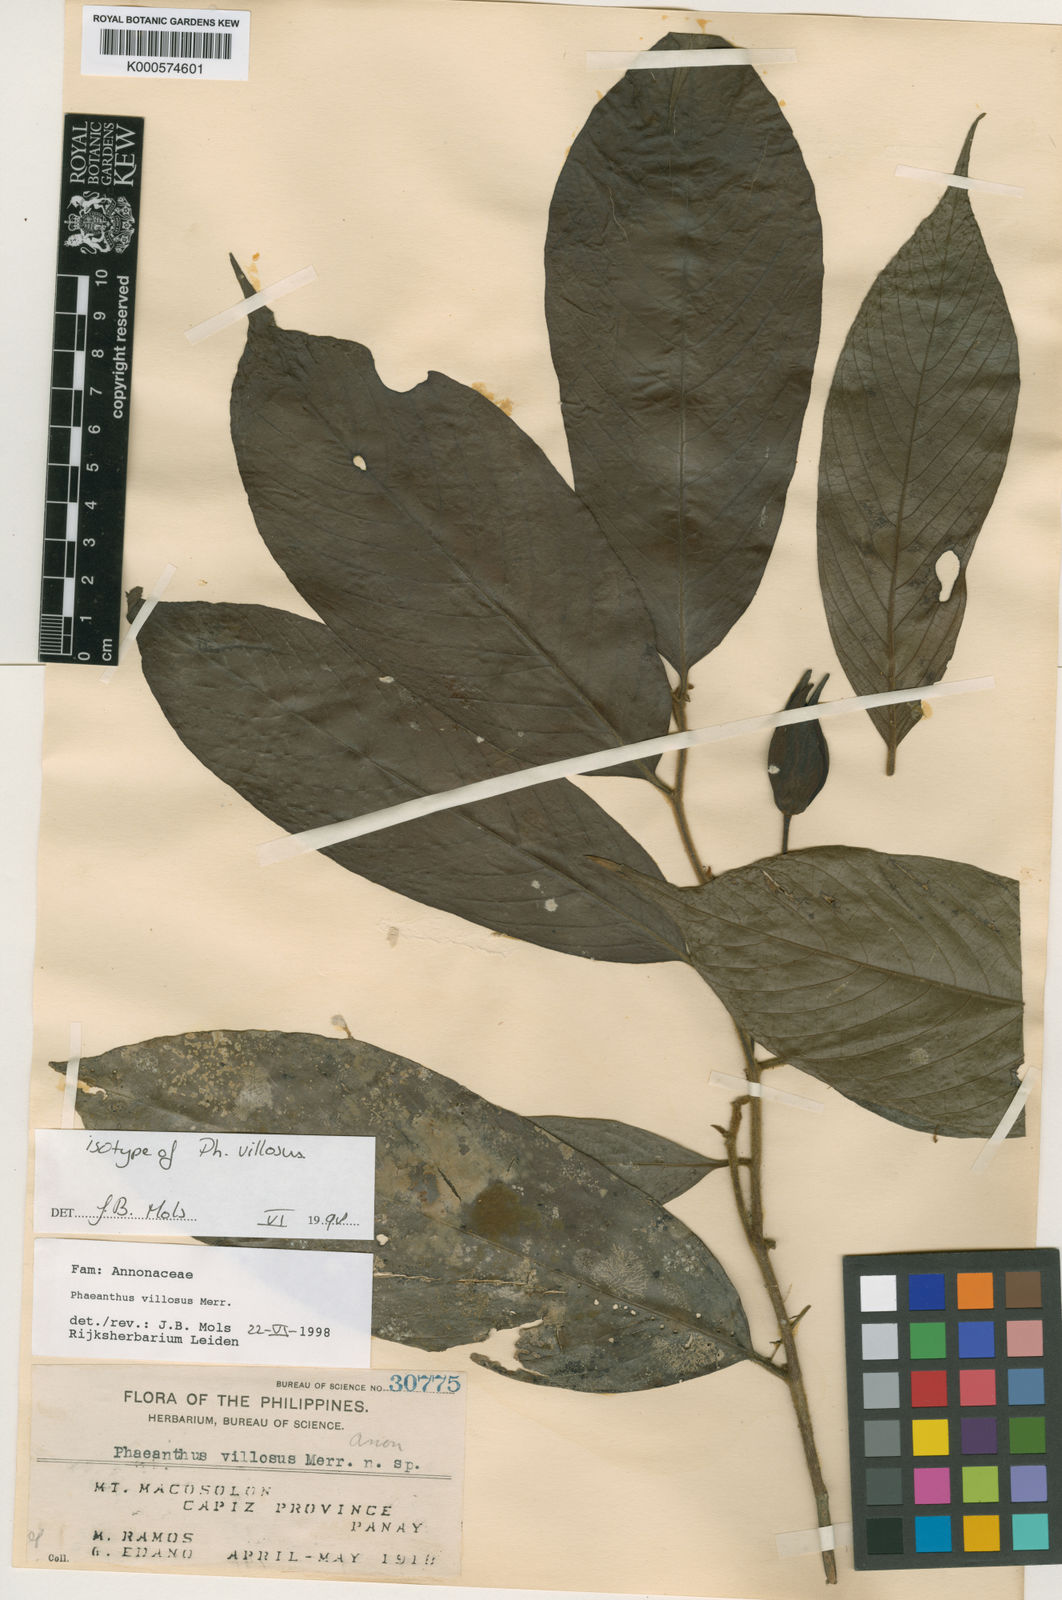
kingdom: Plantae
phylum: Tracheophyta
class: Magnoliopsida
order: Magnoliales
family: Annonaceae
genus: Phaeanthus
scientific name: Phaeanthus villosus
